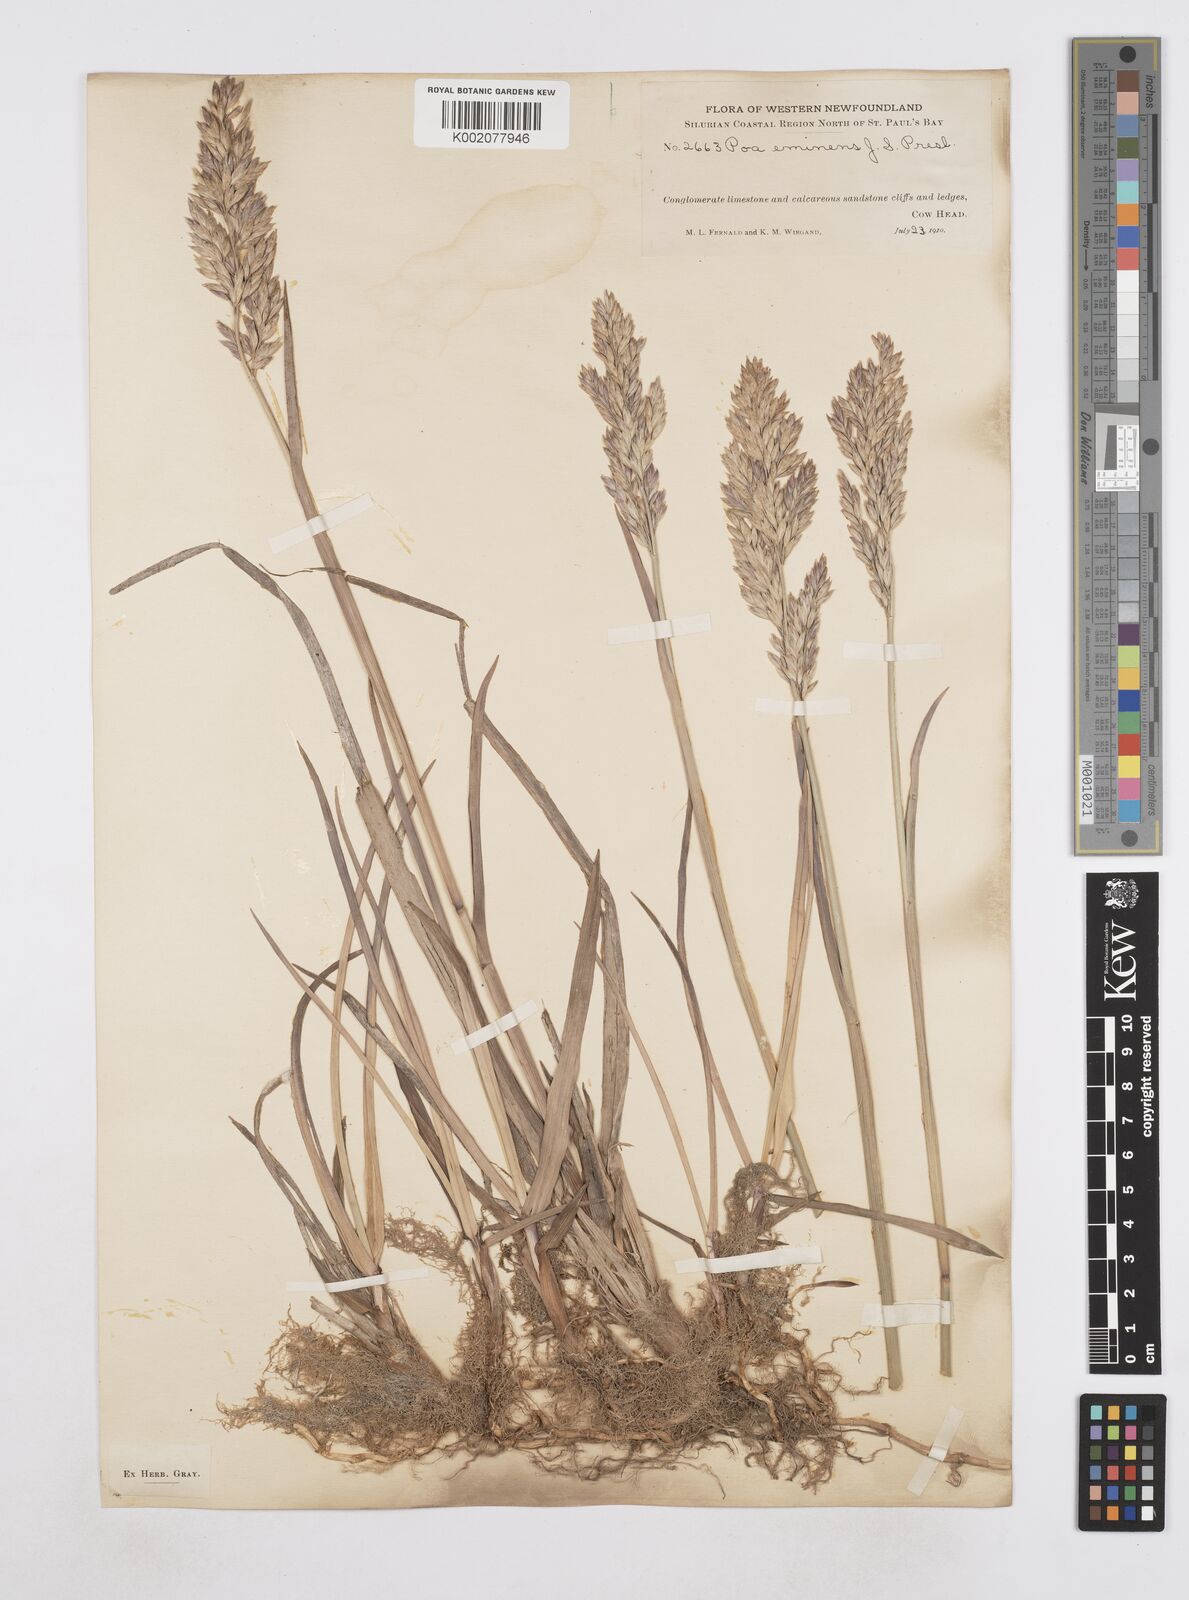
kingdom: Plantae
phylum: Tracheophyta
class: Liliopsida
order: Poales
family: Poaceae
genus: Arctopoa
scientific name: Arctopoa eminens
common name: Eminent bluegrass
